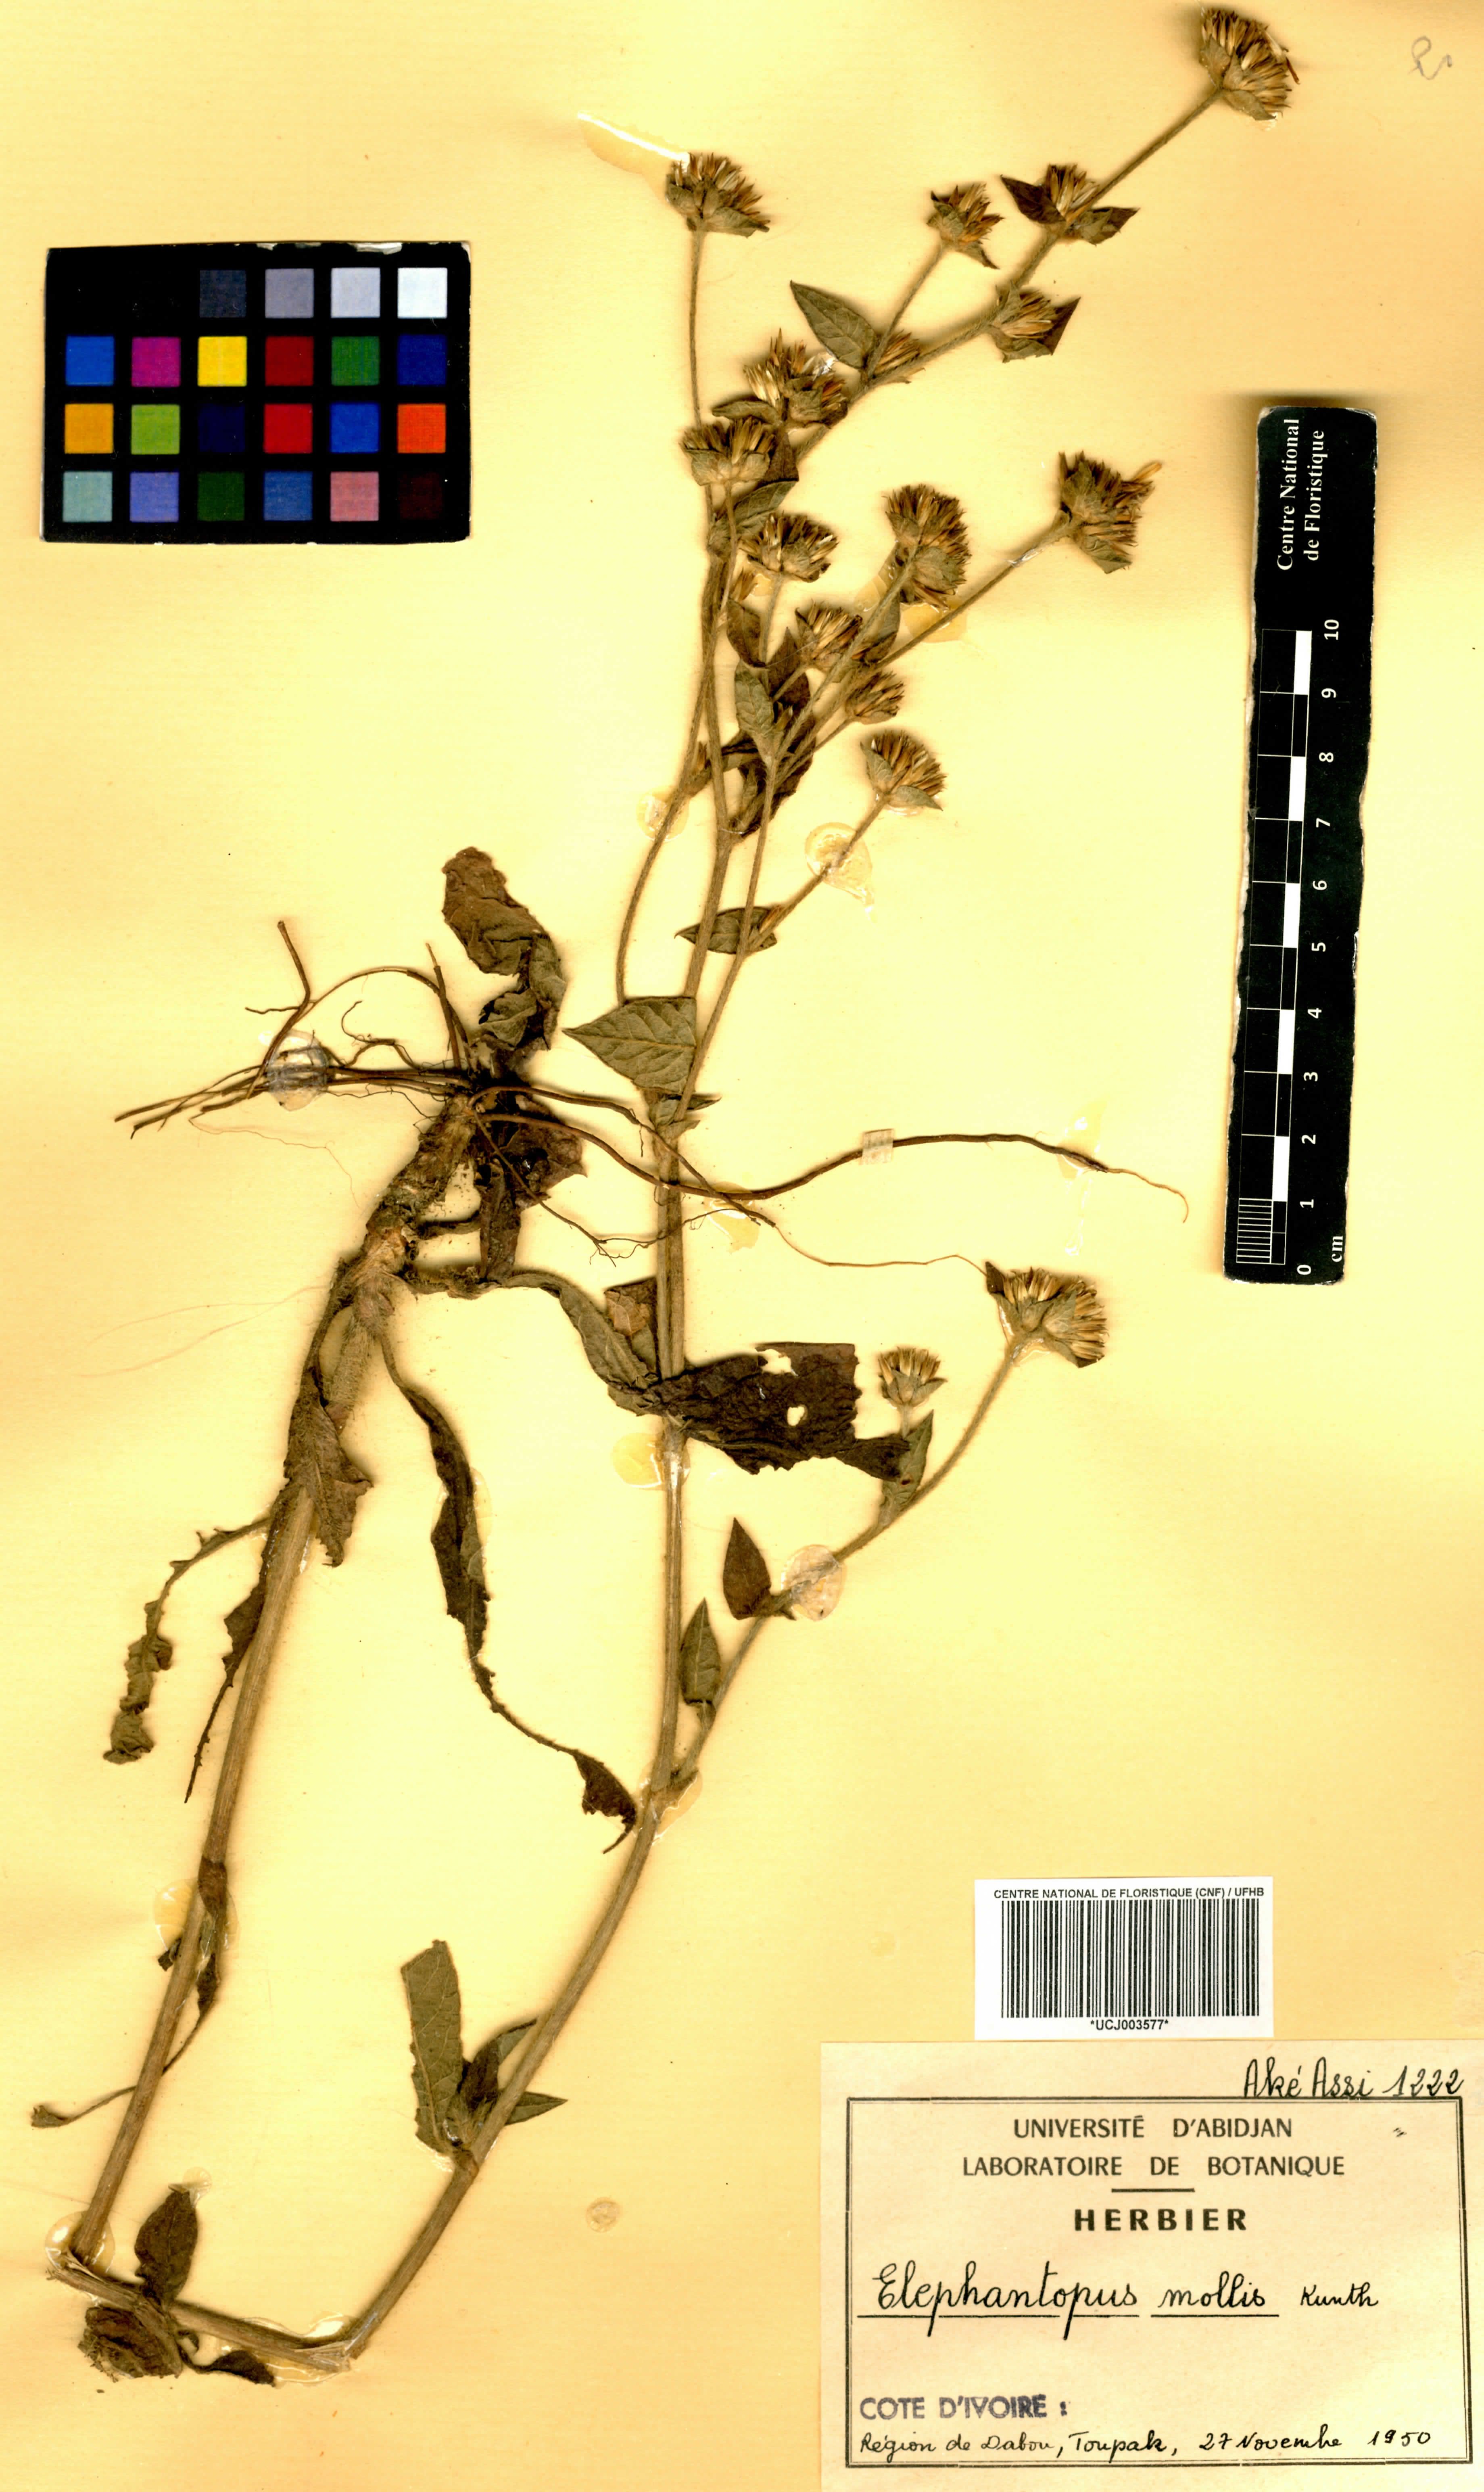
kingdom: Plantae
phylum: Tracheophyta
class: Magnoliopsida
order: Asterales
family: Asteraceae
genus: Elephantopus
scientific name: Elephantopus mollis
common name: Soft elephantsfoot
